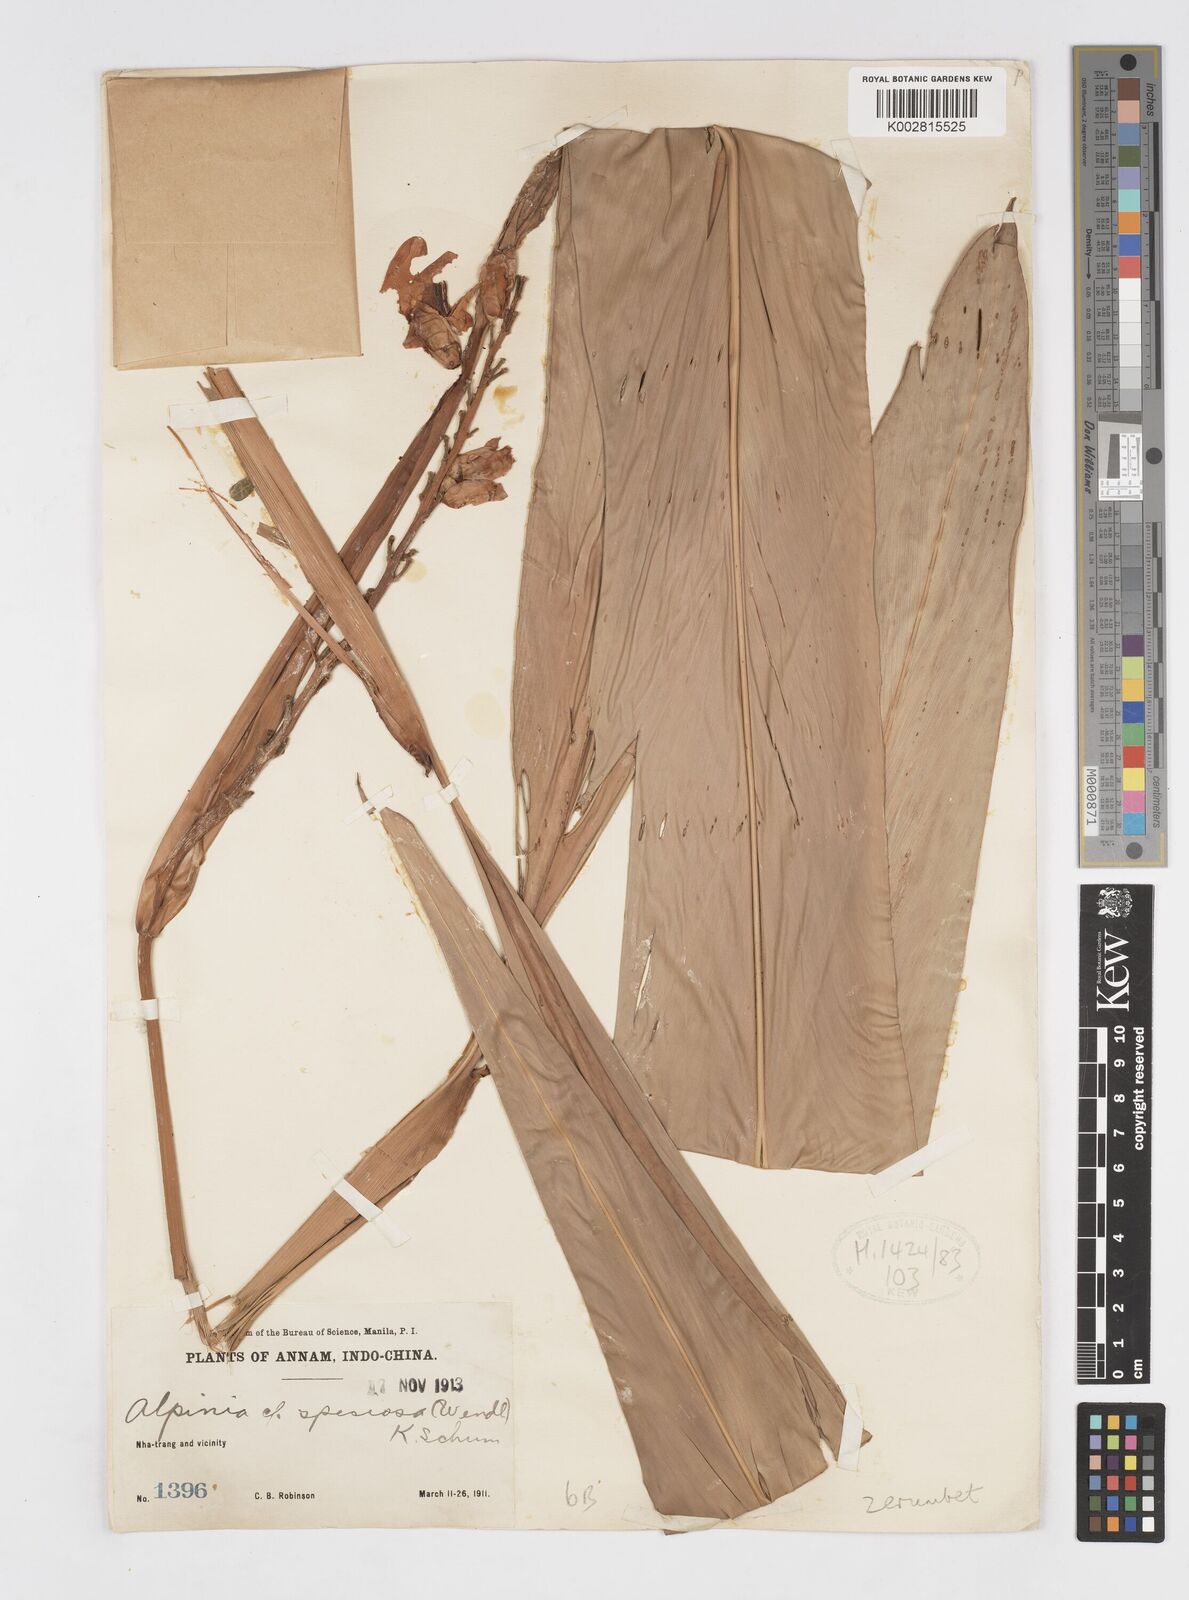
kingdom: Plantae
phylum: Tracheophyta
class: Liliopsida
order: Zingiberales
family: Zingiberaceae
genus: Alpinia
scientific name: Alpinia zerumbet
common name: Shellplant
